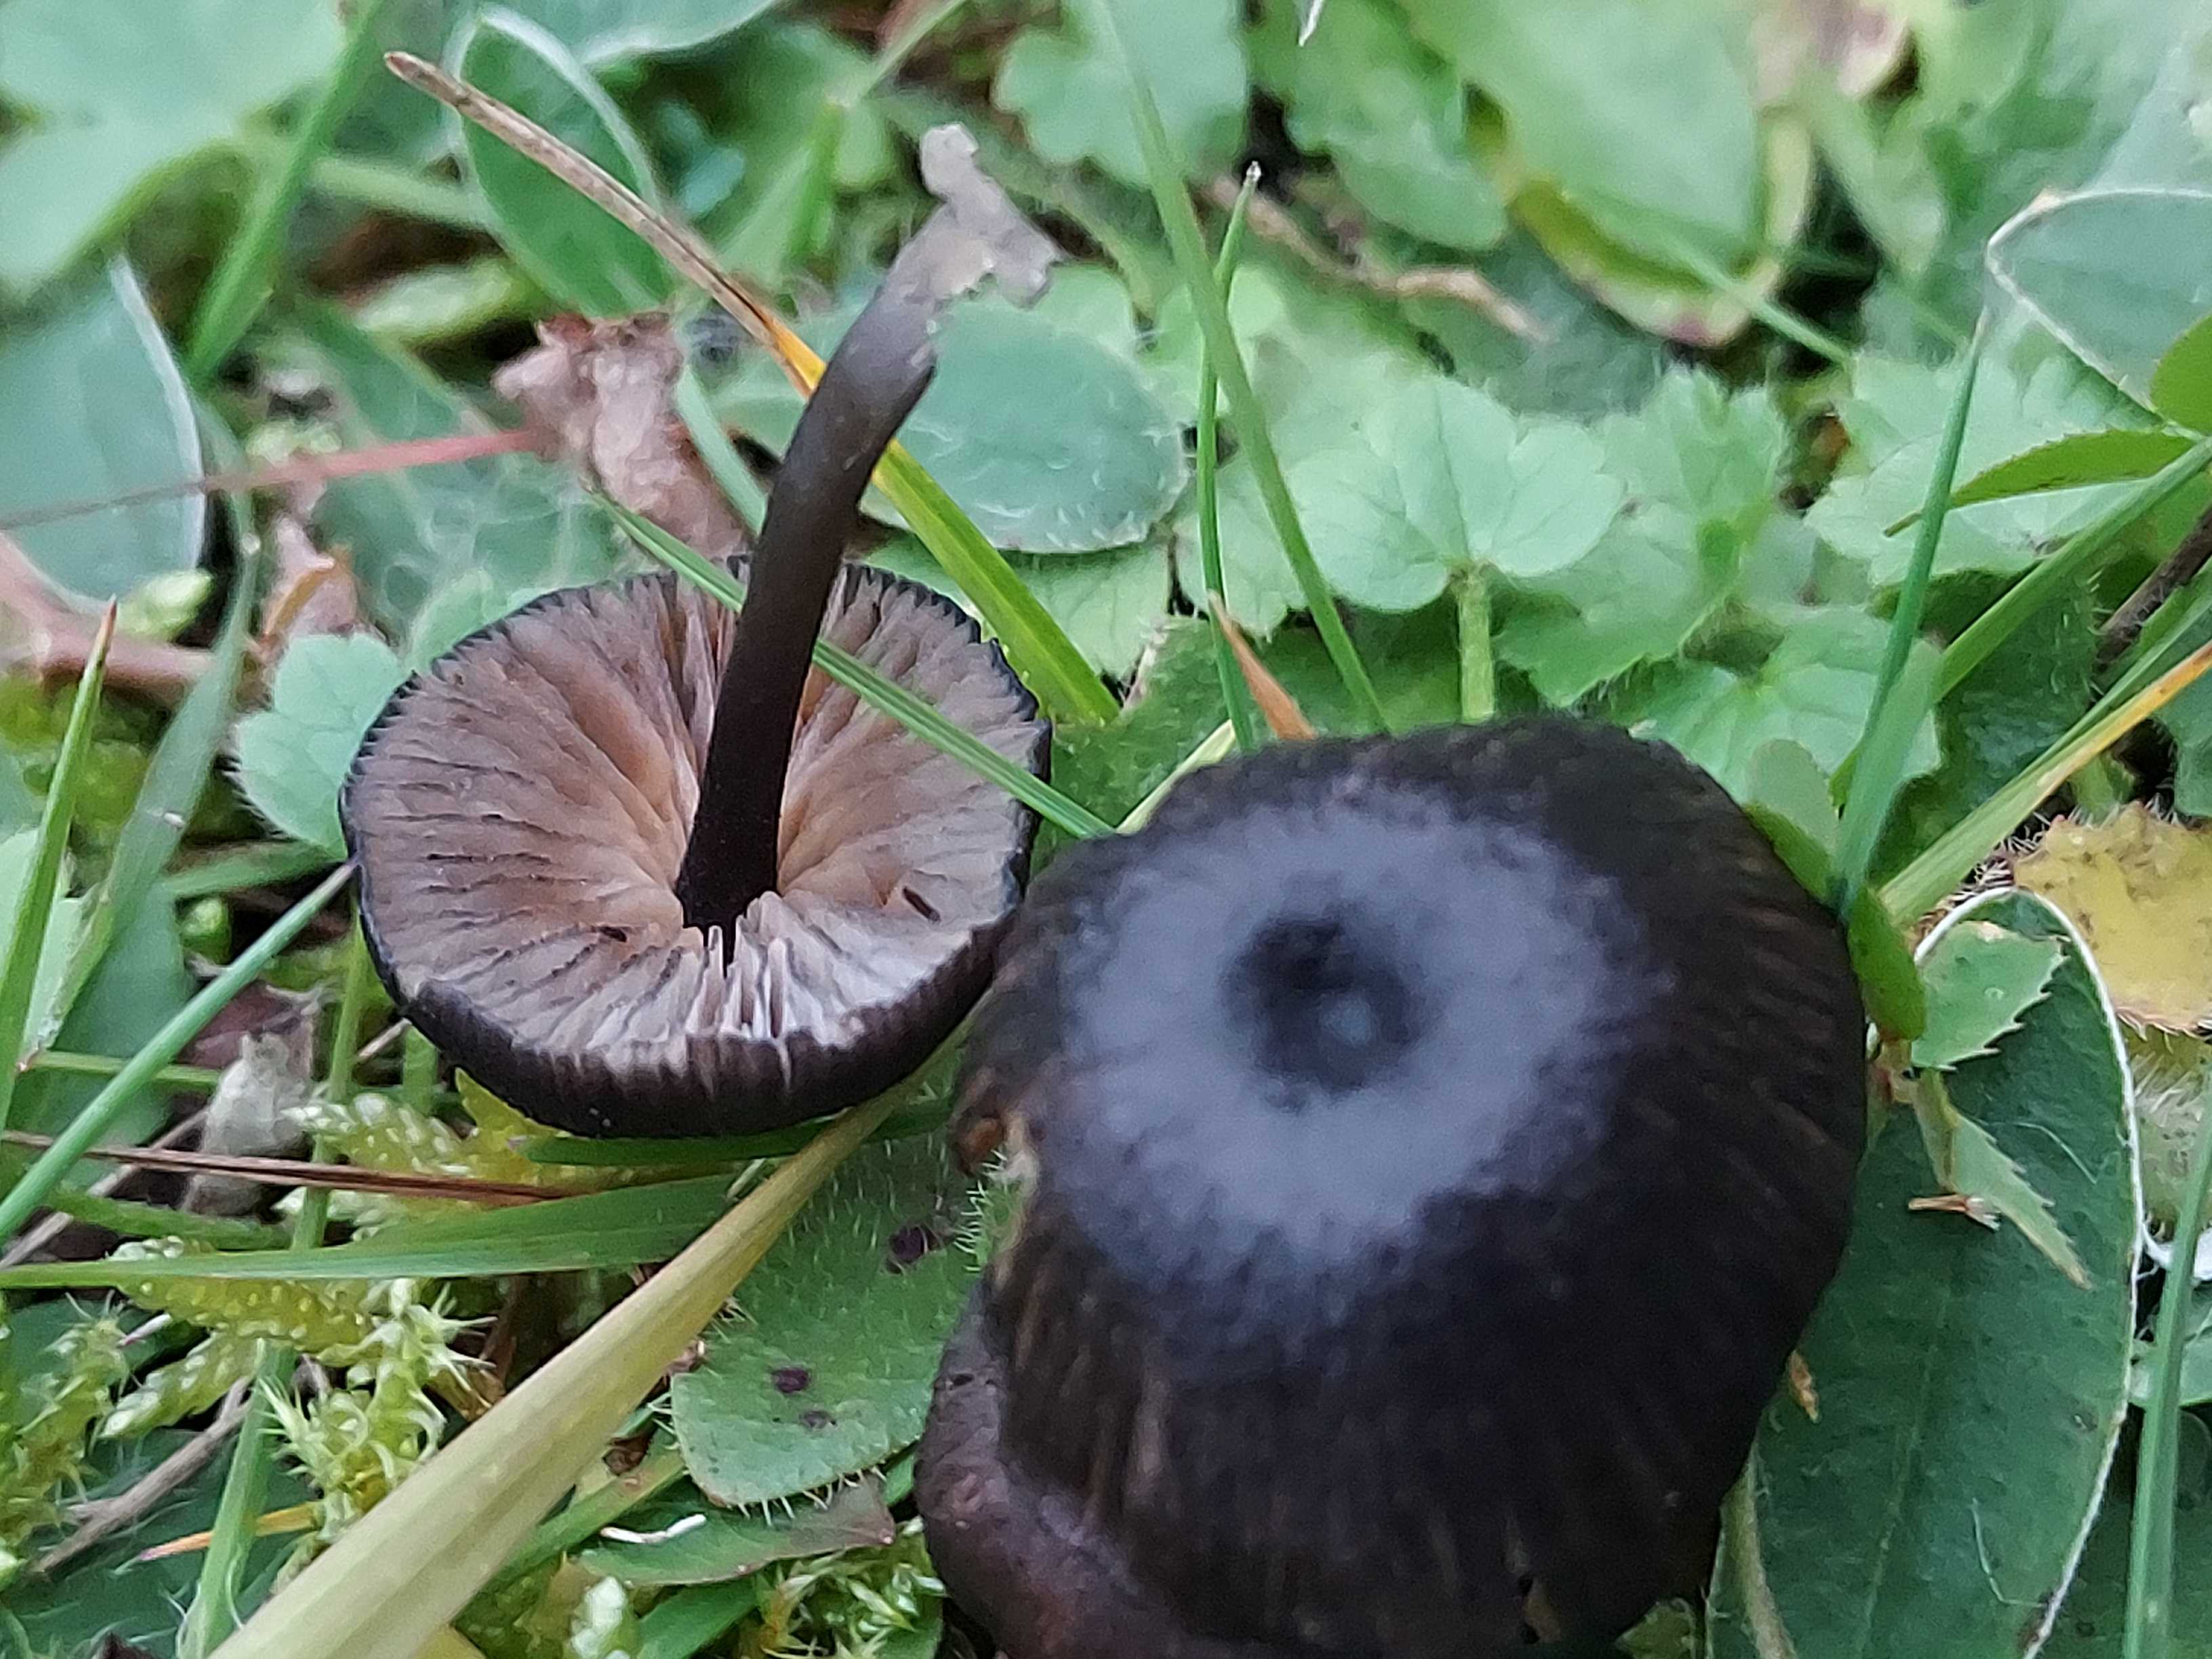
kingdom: Fungi
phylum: Basidiomycota
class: Agaricomycetes
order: Agaricales
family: Entolomataceae
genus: Entoloma
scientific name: Entoloma
